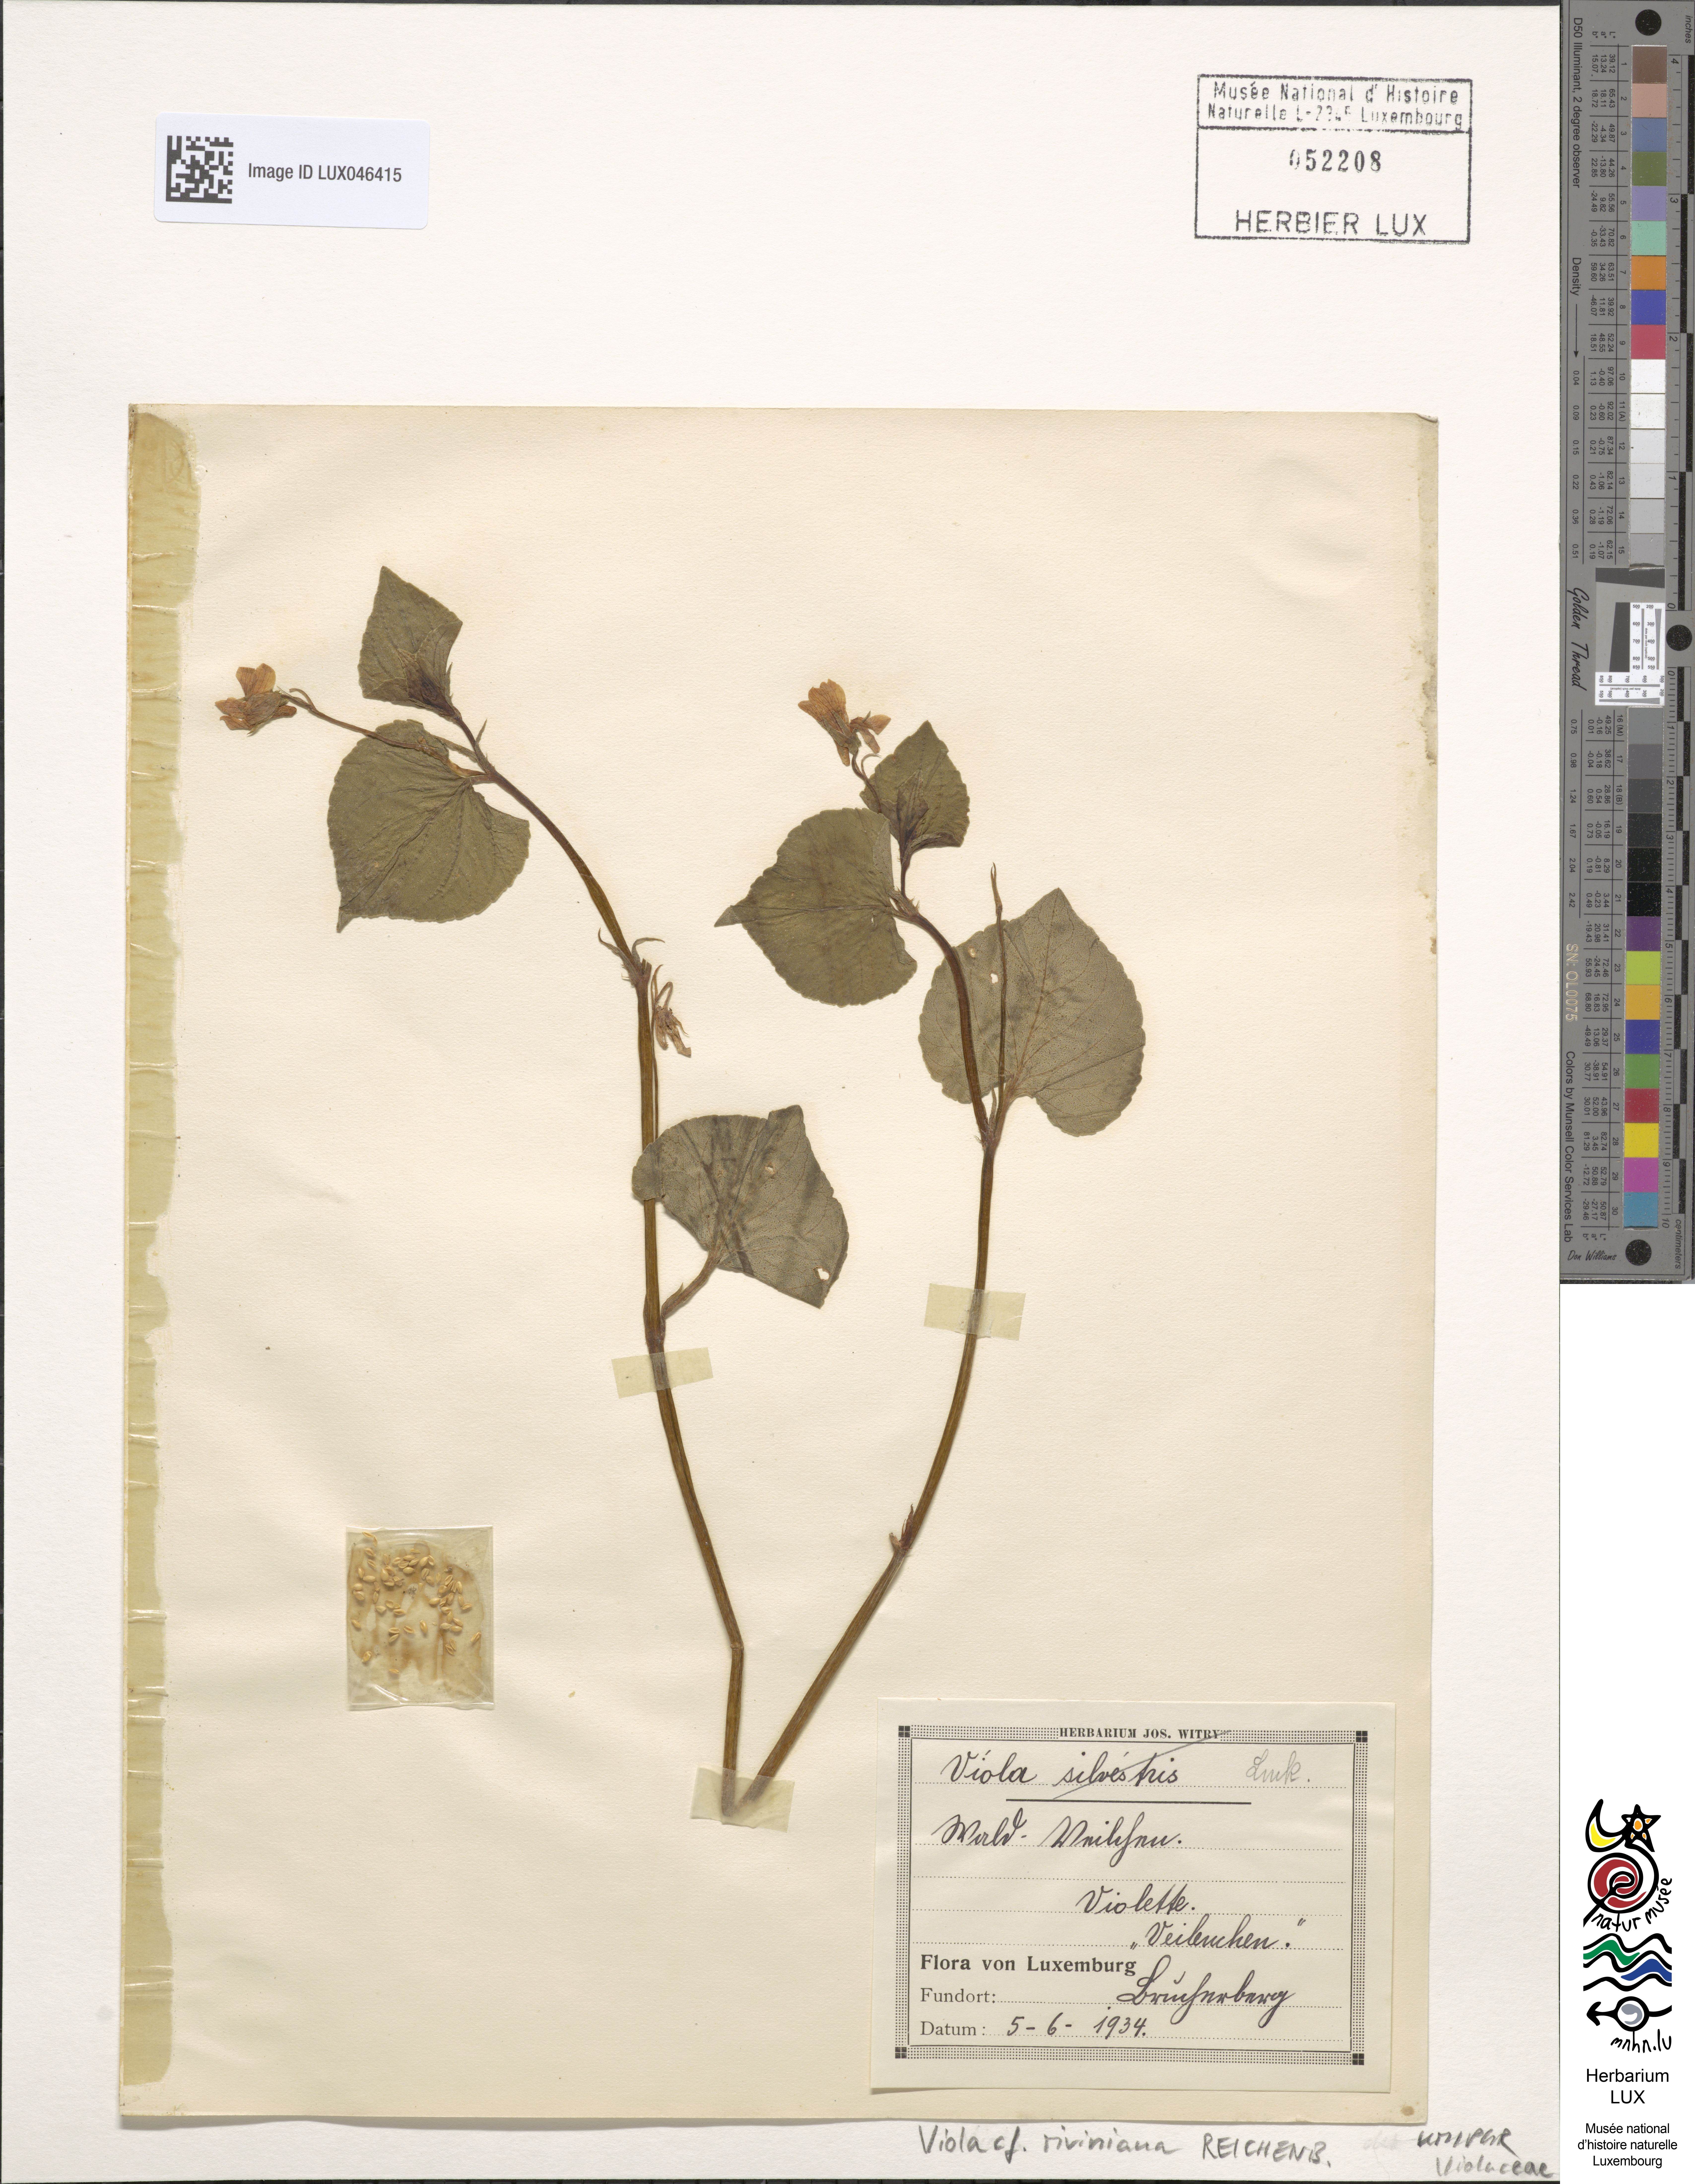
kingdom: Plantae
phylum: Tracheophyta
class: Magnoliopsida
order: Malpighiales
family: Violaceae
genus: Viola
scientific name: Viola riviniana
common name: Common dog-violet
